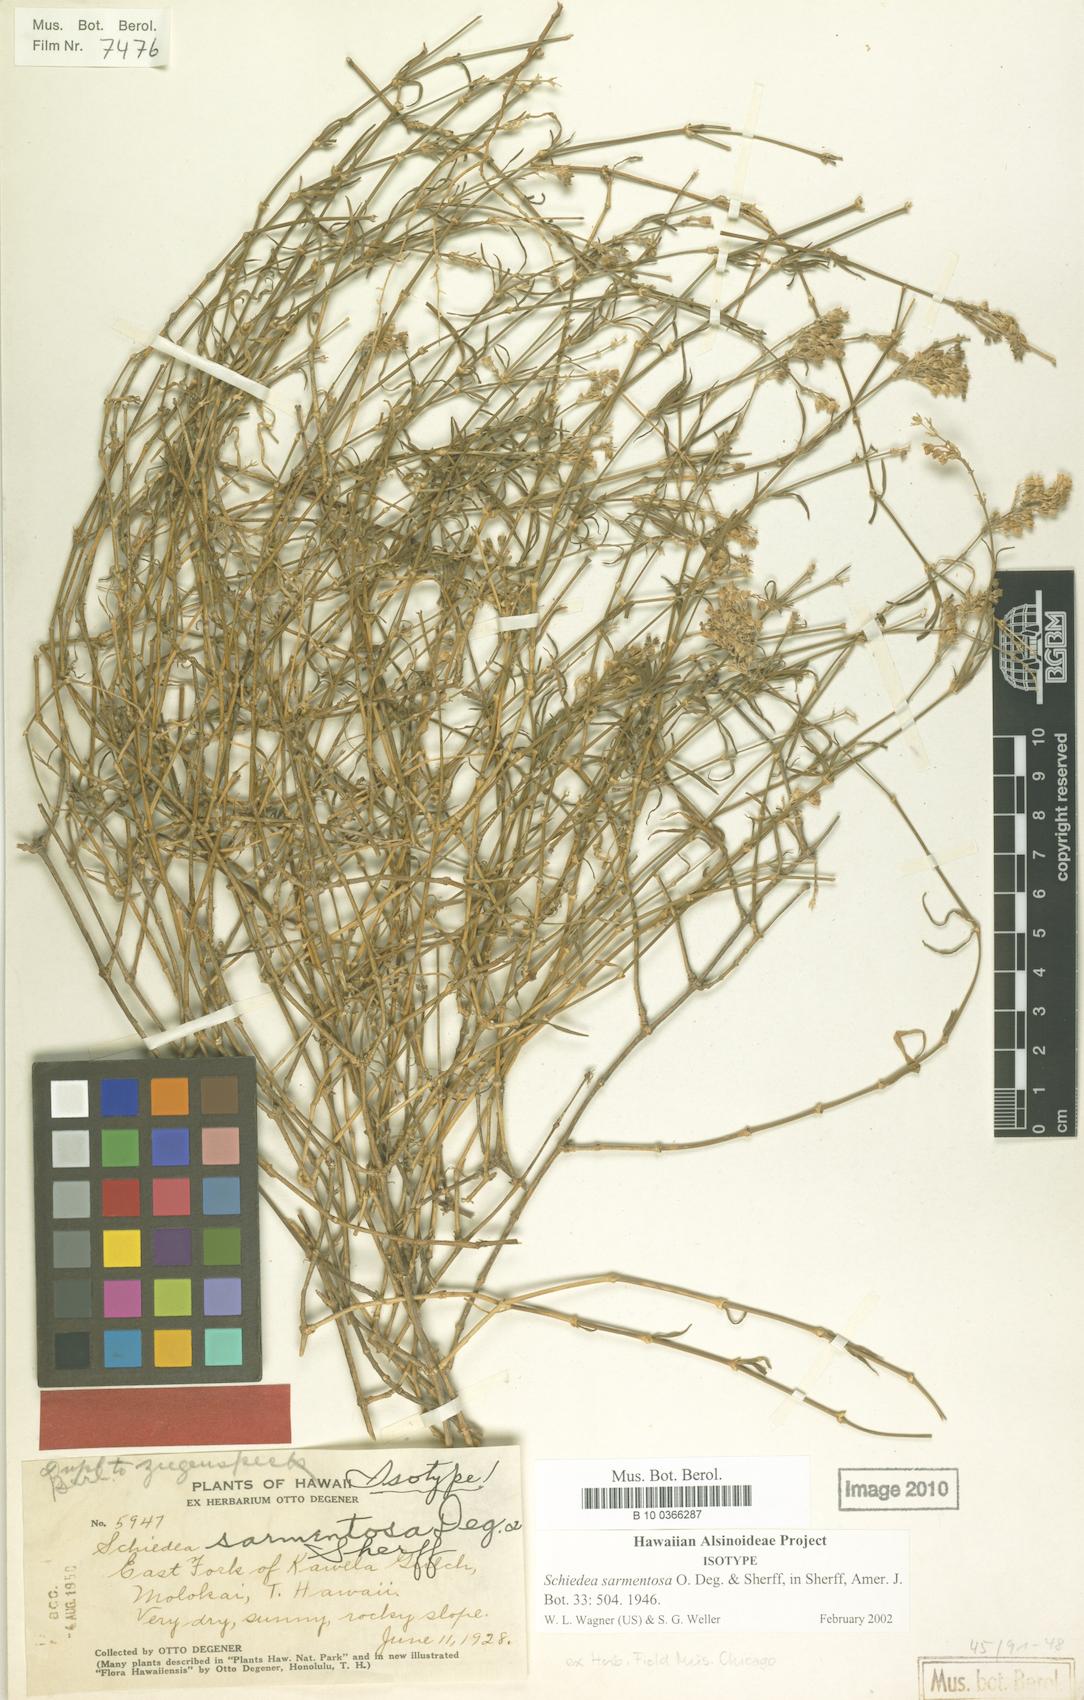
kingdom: Plantae
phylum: Tracheophyta
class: Magnoliopsida
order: Caryophyllales
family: Caryophyllaceae
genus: Schiedea
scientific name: Schiedea sarmentosa
